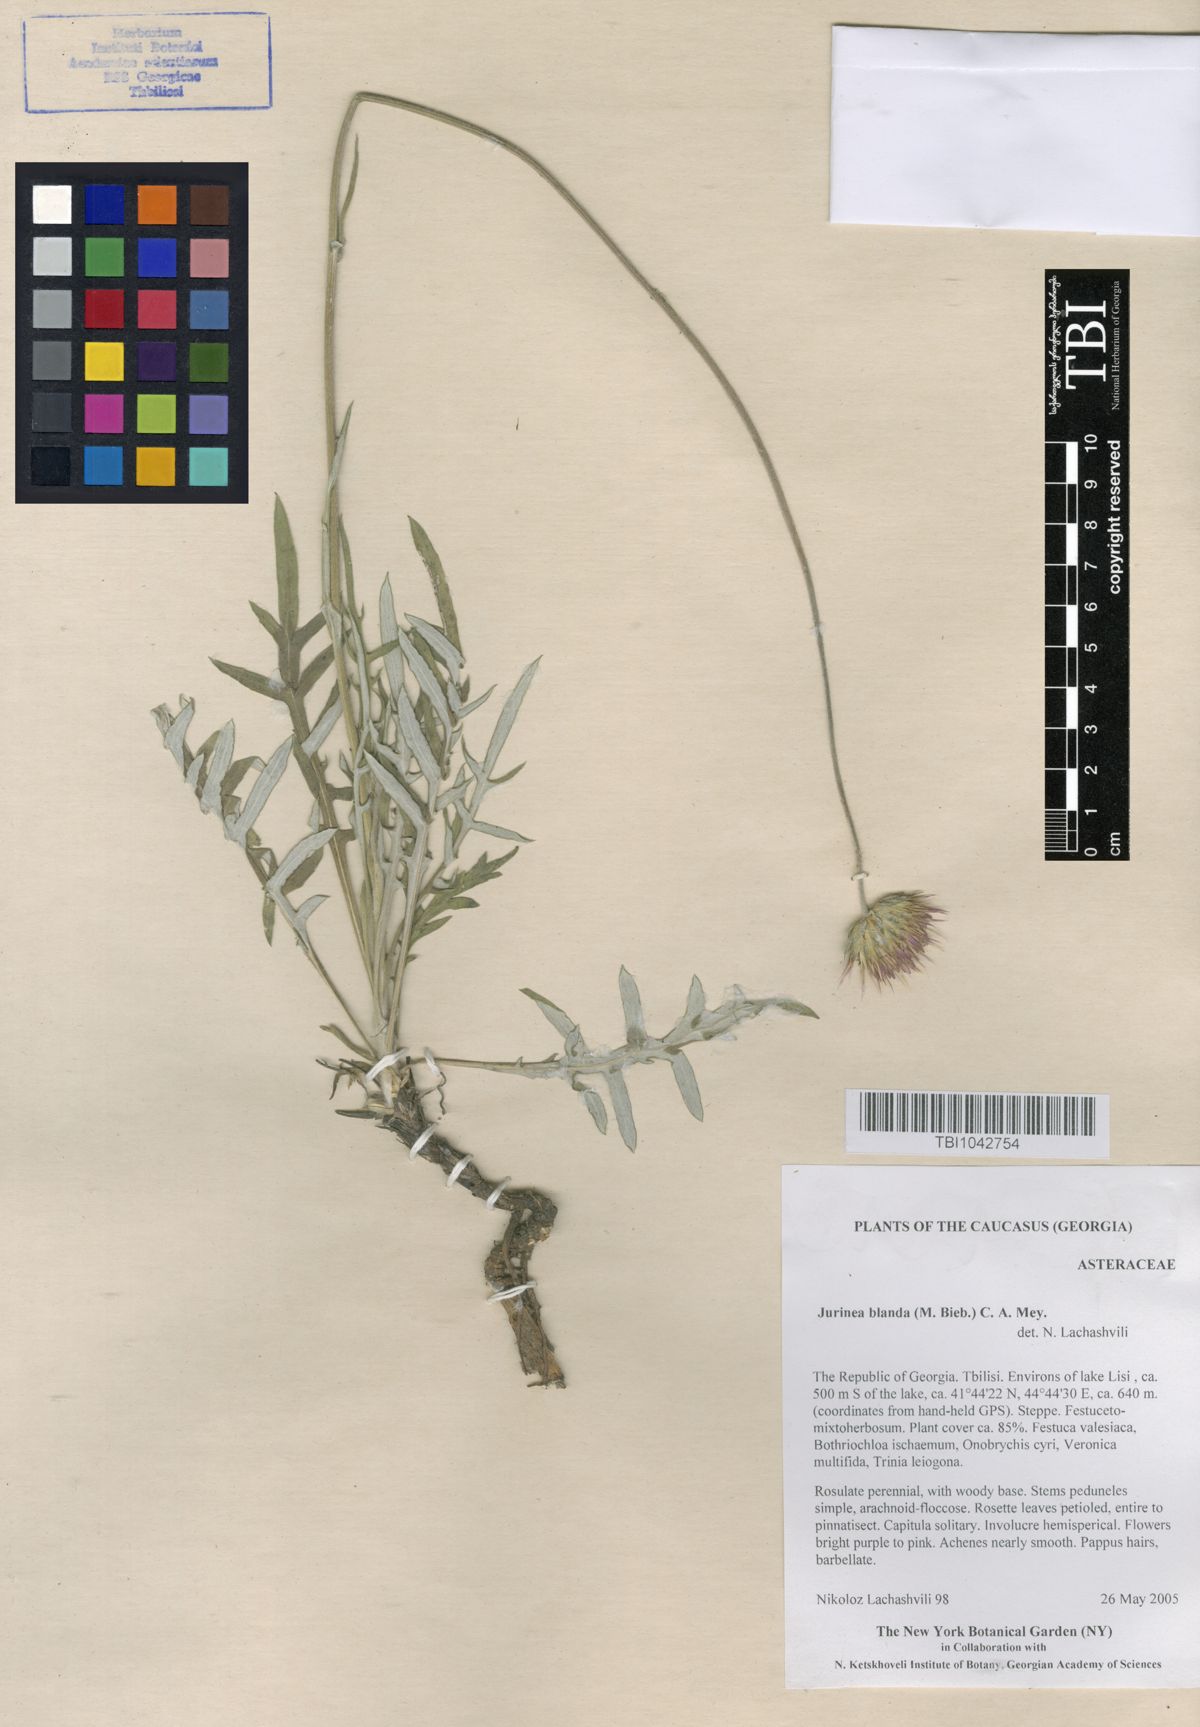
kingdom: Plantae
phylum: Tracheophyta
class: Magnoliopsida
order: Asterales
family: Asteraceae
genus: Jurinea
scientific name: Jurinea blanda
